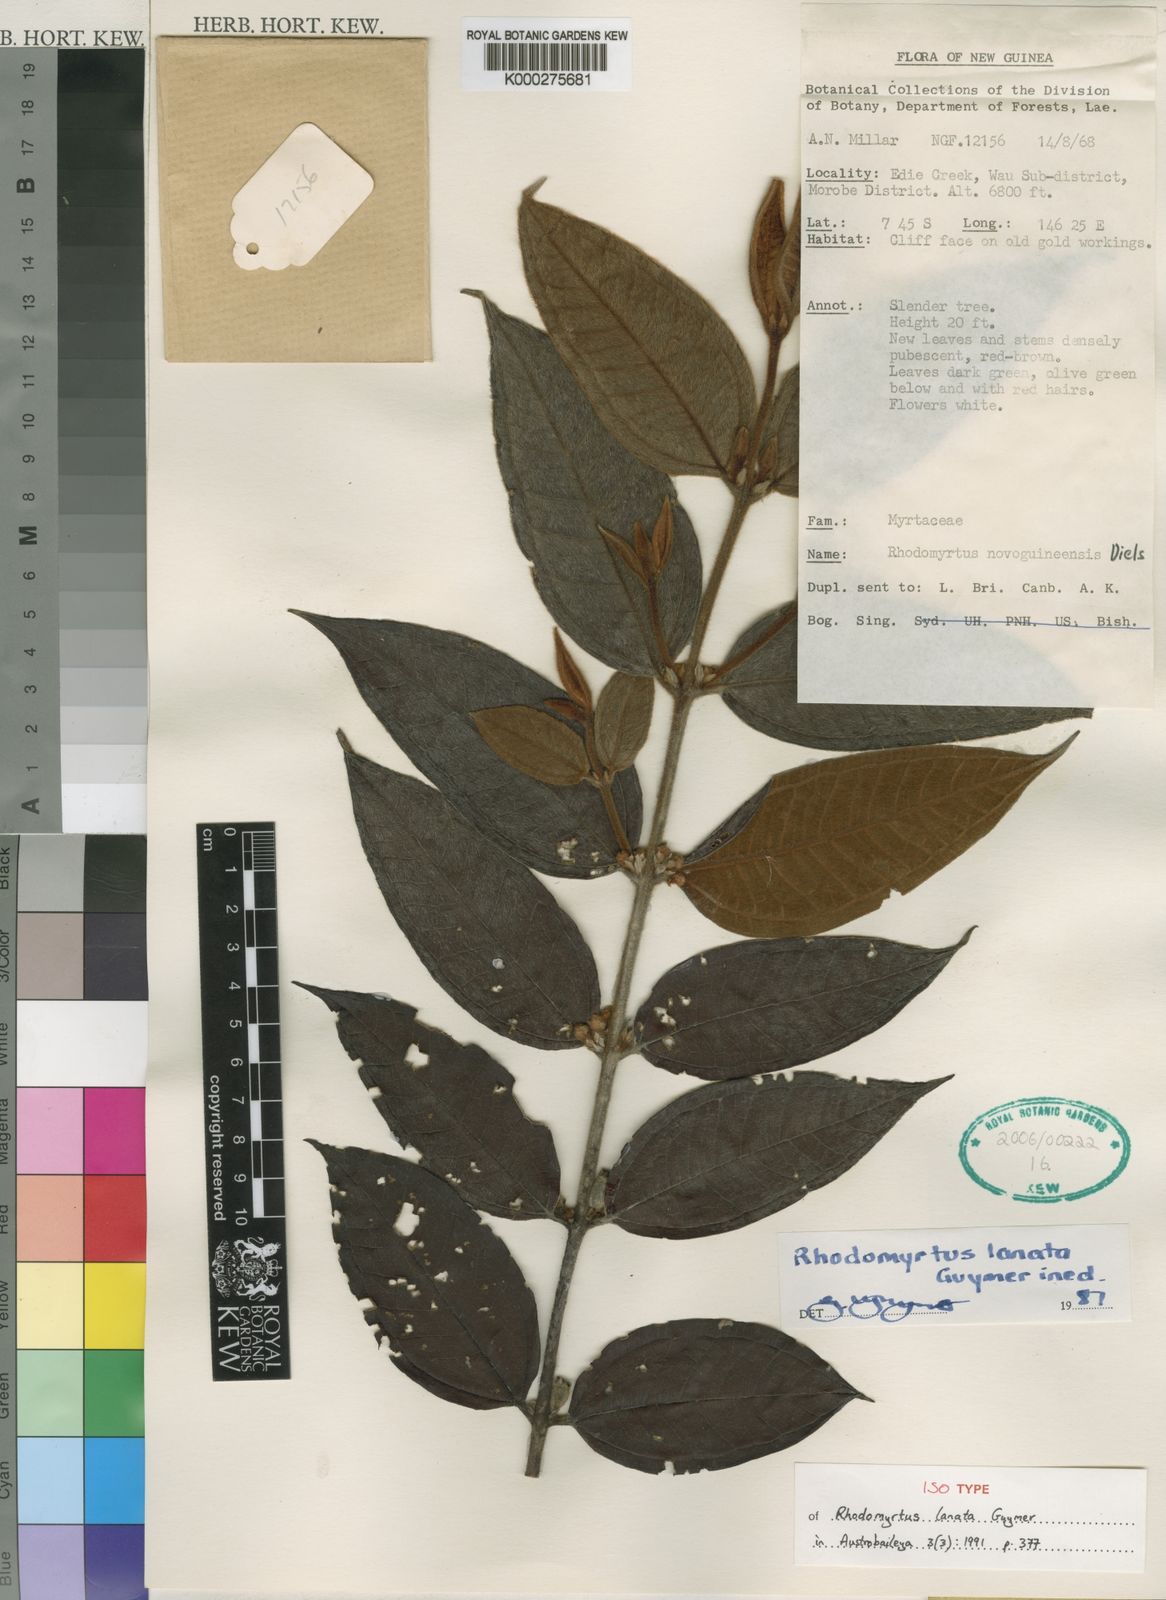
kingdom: Plantae
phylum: Tracheophyta
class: Magnoliopsida
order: Myrtales
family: Myrtaceae
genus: Rhodomyrtus
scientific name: Rhodomyrtus lanata
